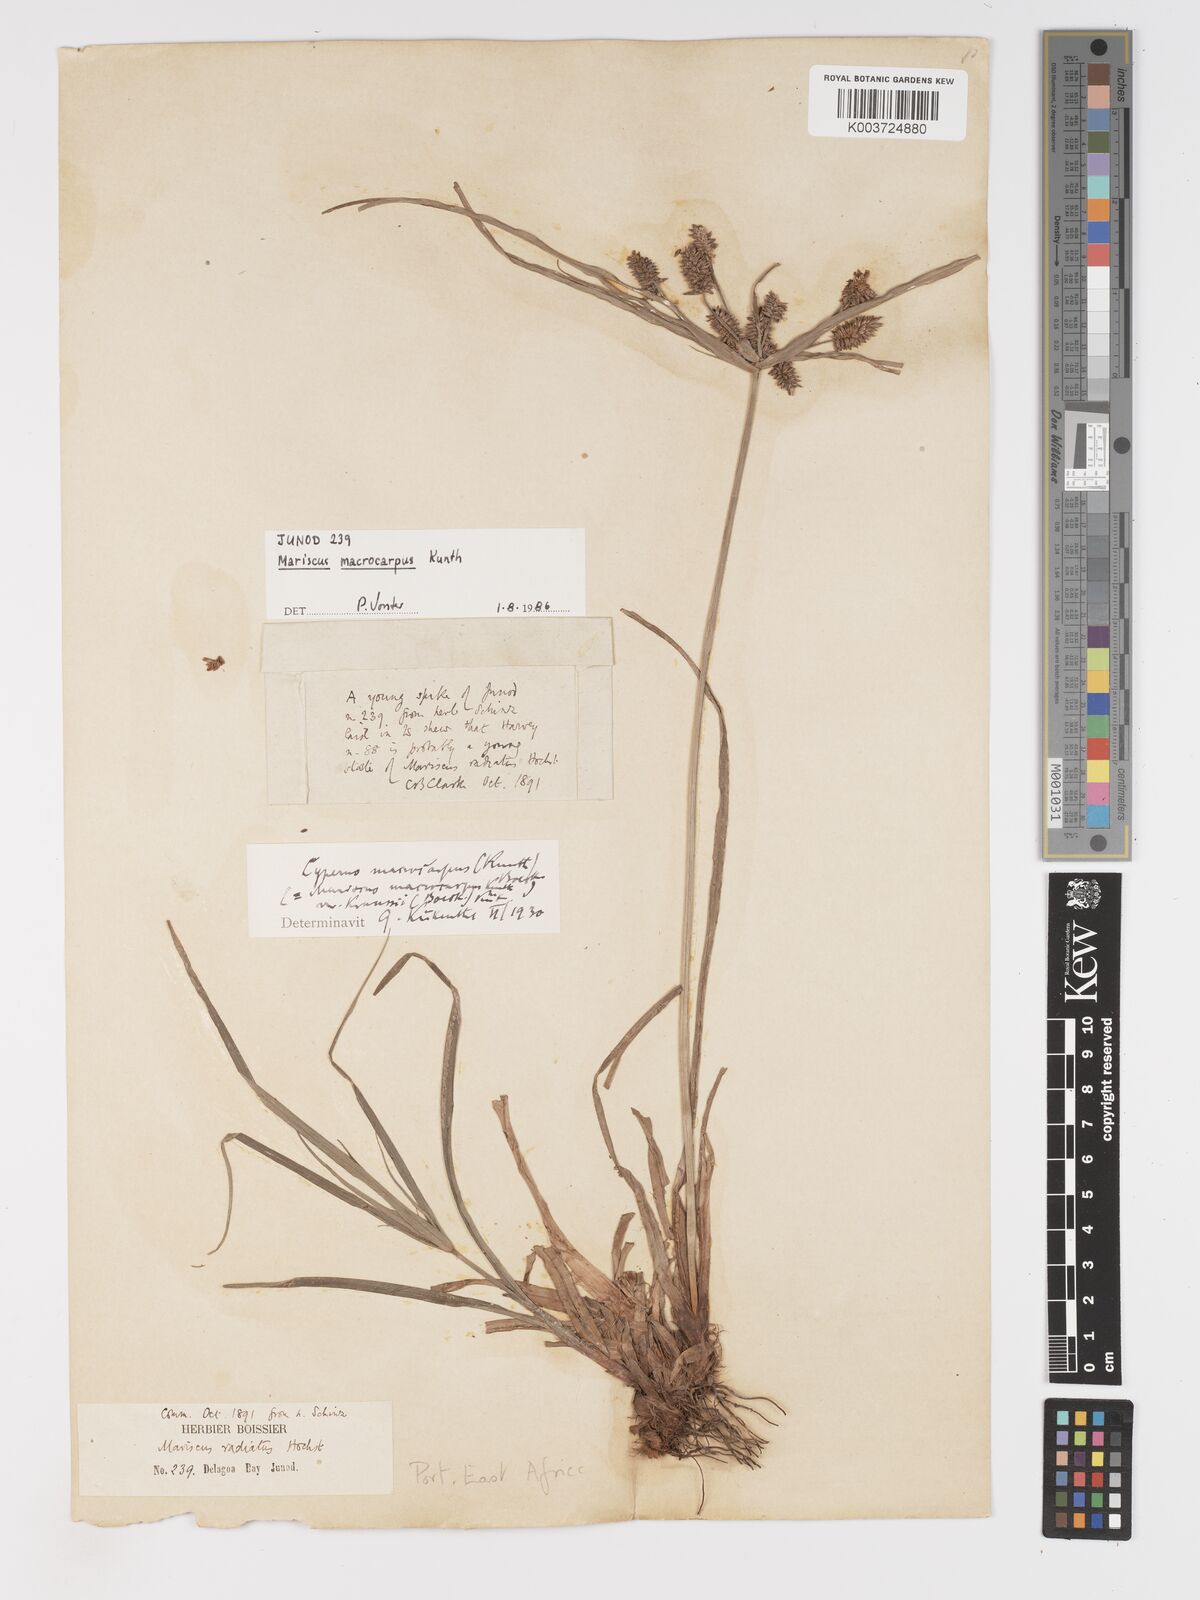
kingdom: Plantae
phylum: Tracheophyta
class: Liliopsida
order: Poales
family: Cyperaceae
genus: Cyperus
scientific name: Cyperus macrocarpus
